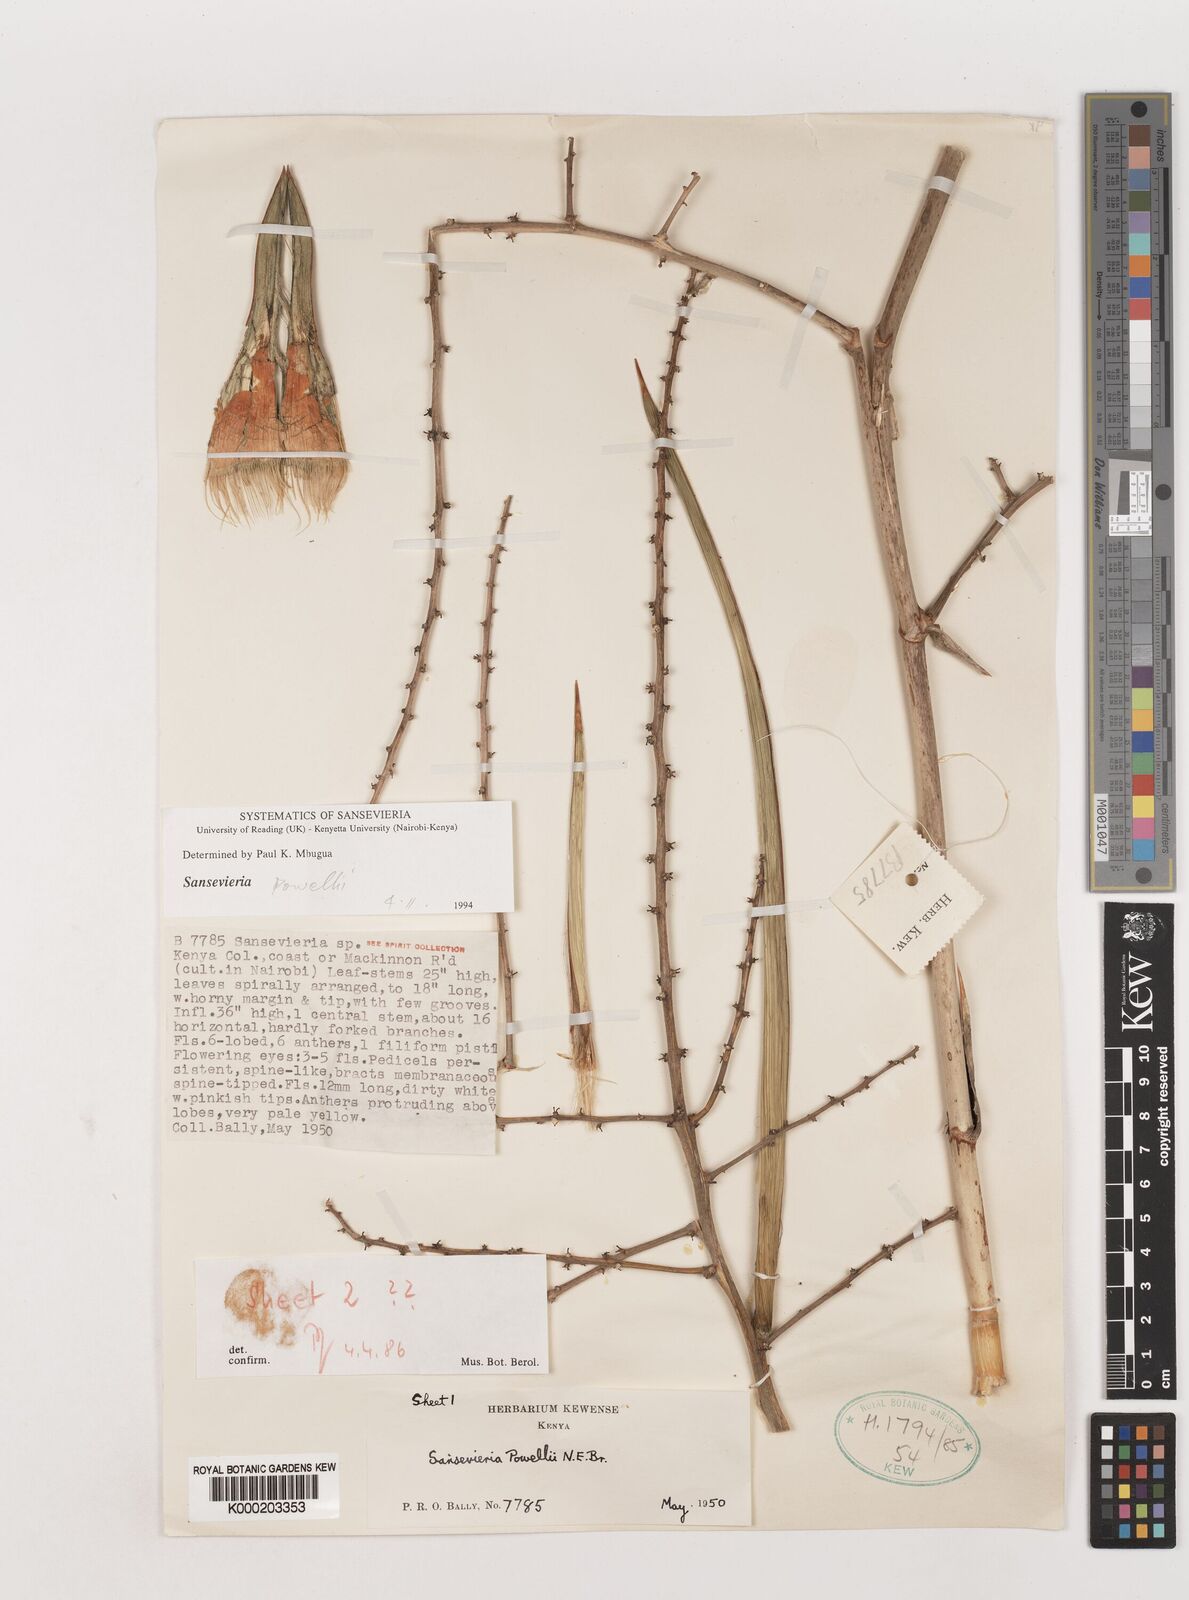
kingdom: Plantae
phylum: Tracheophyta
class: Liliopsida
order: Asparagales
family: Asparagaceae
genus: Dracaena
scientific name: Dracaena powellii
